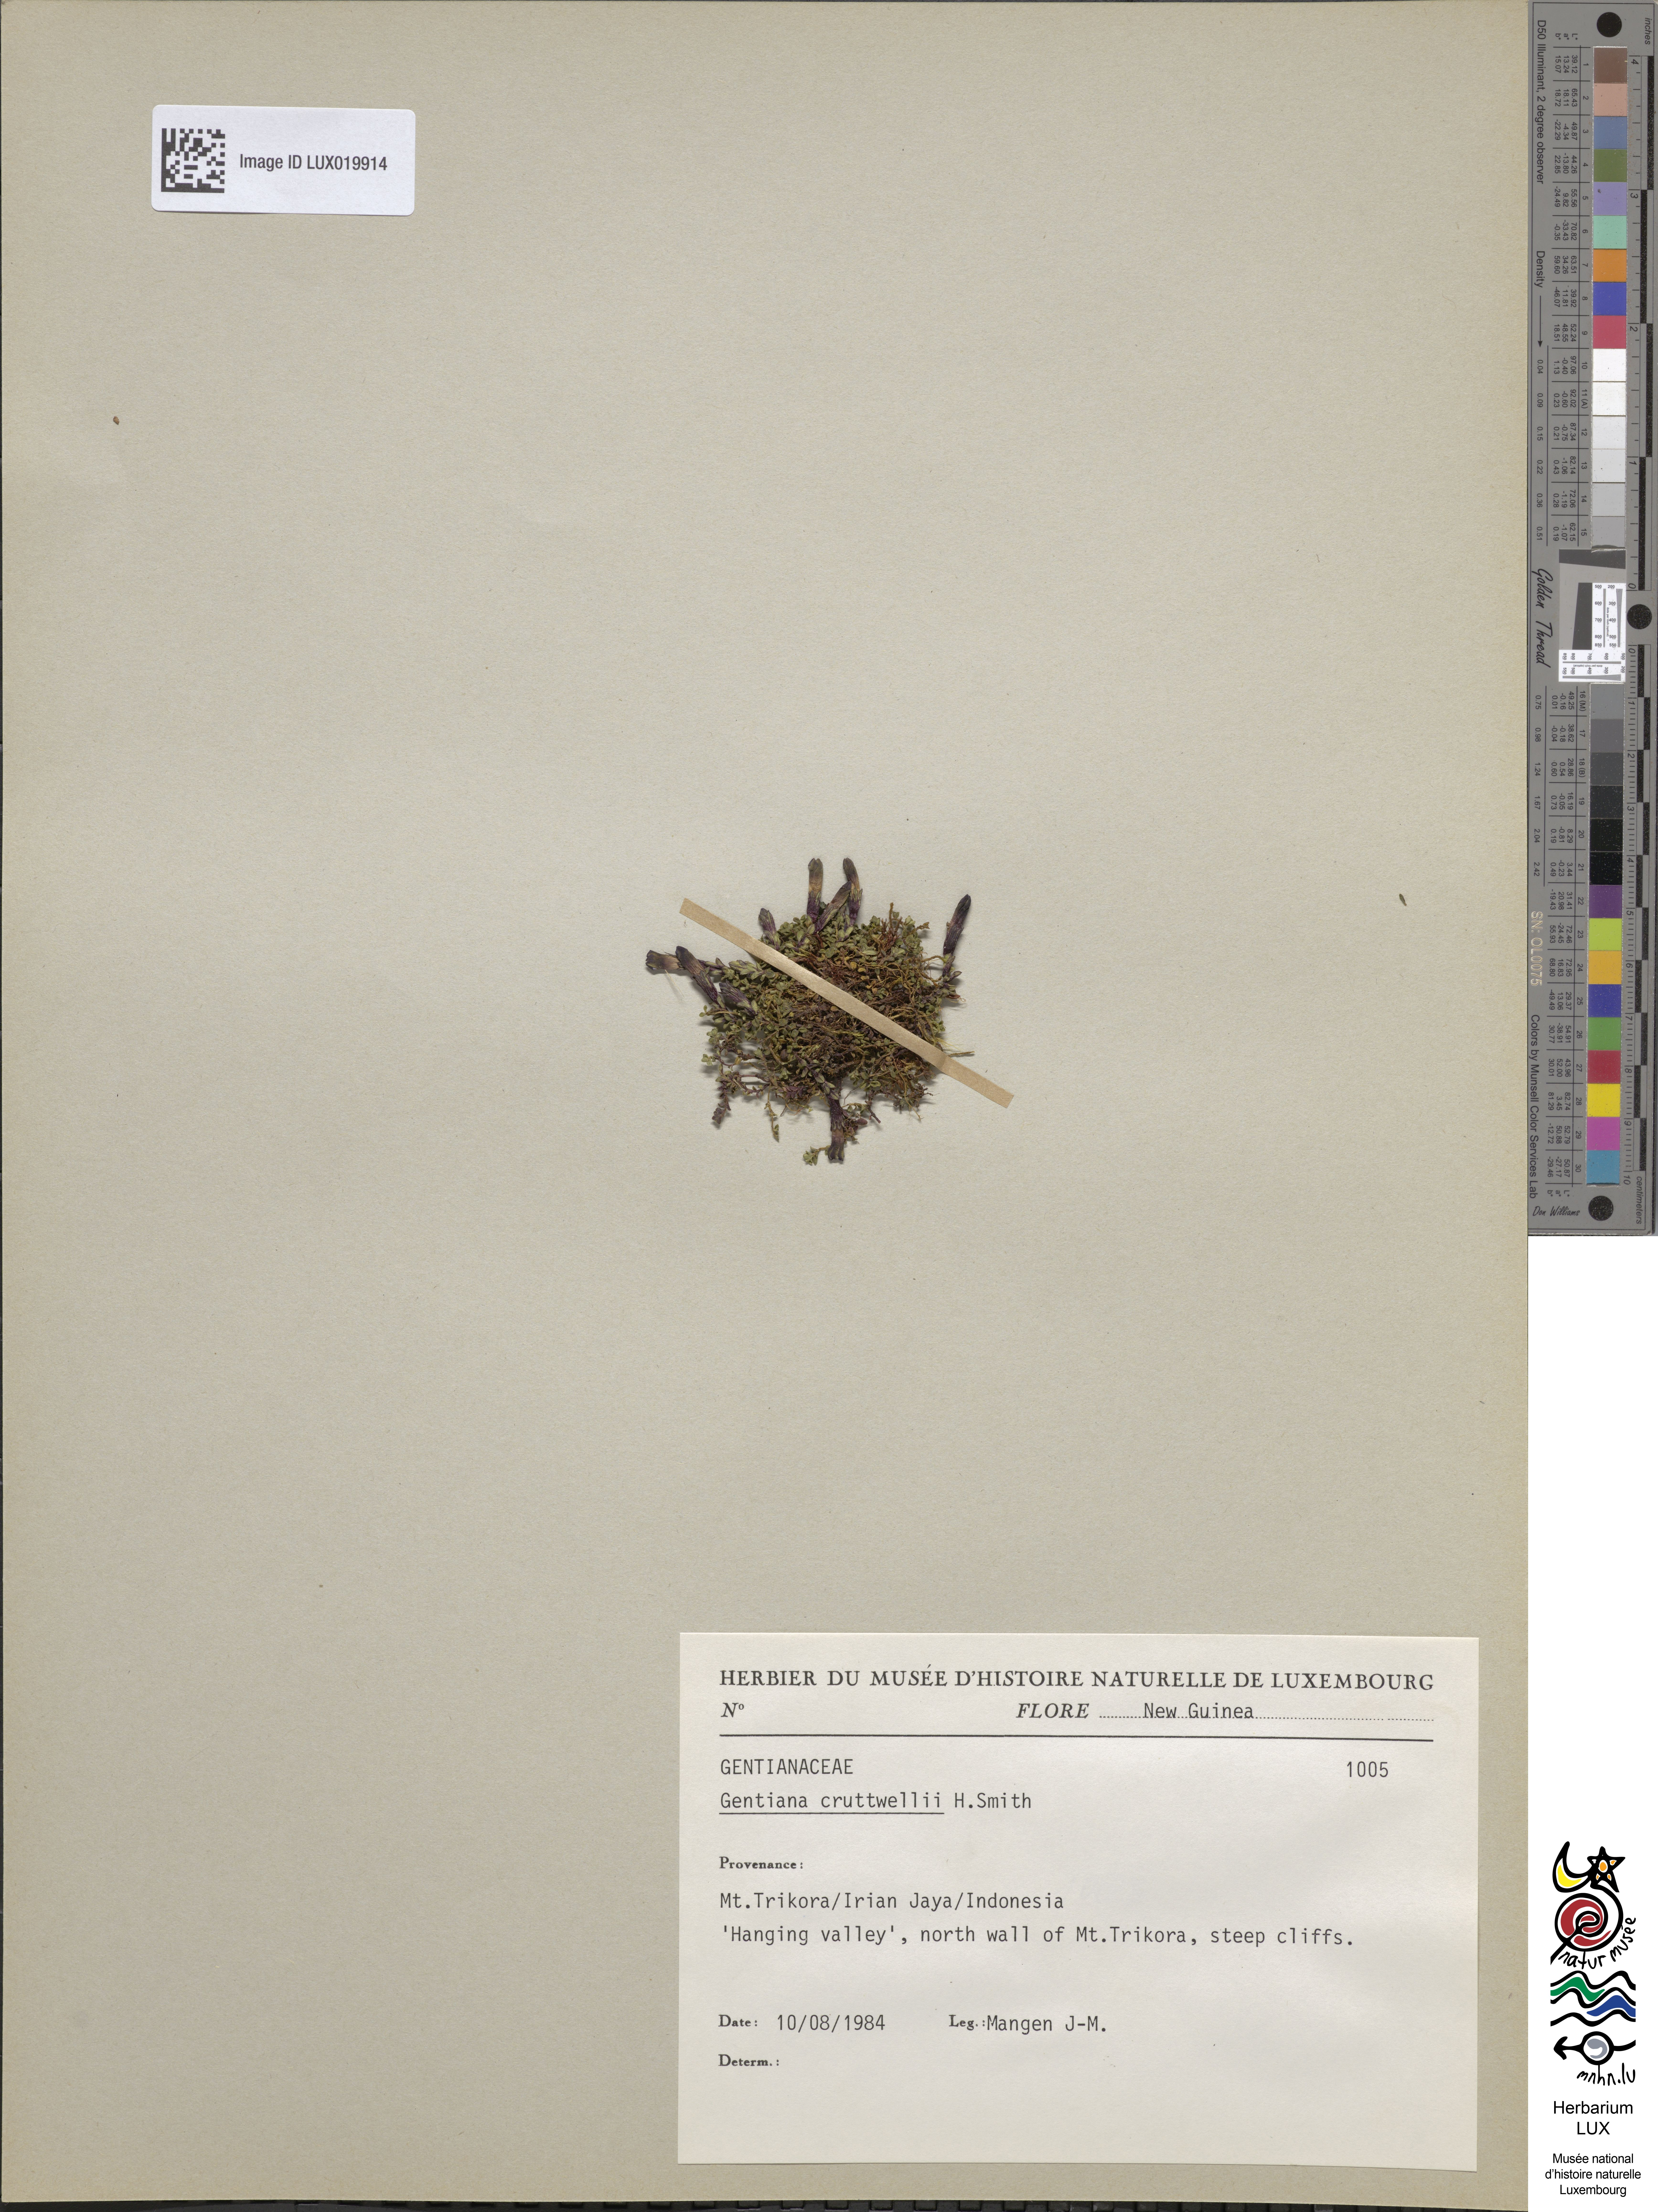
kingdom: Plantae
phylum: Tracheophyta
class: Magnoliopsida
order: Gentianales
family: Gentianaceae
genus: Gentiana
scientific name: Gentiana cruttwellii
